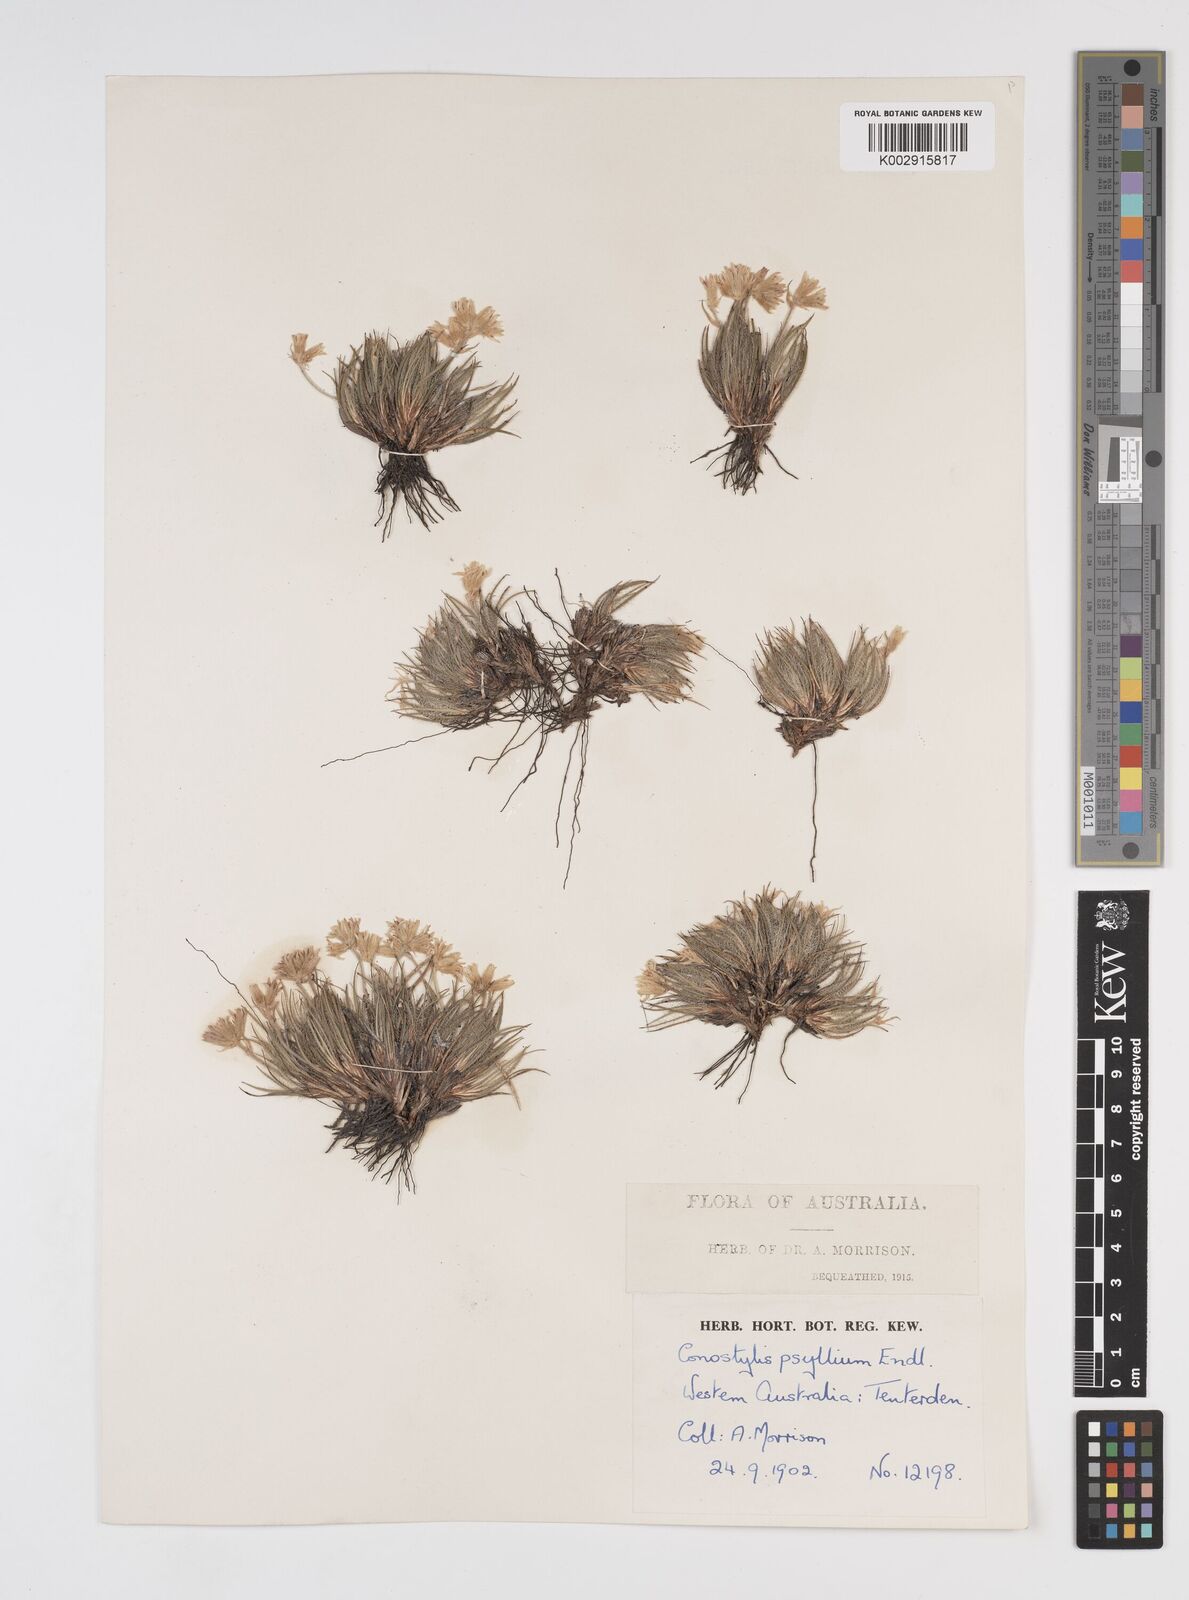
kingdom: Plantae
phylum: Tracheophyta
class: Liliopsida
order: Commelinales
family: Haemodoraceae
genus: Conostylis
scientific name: Conostylis setigera
